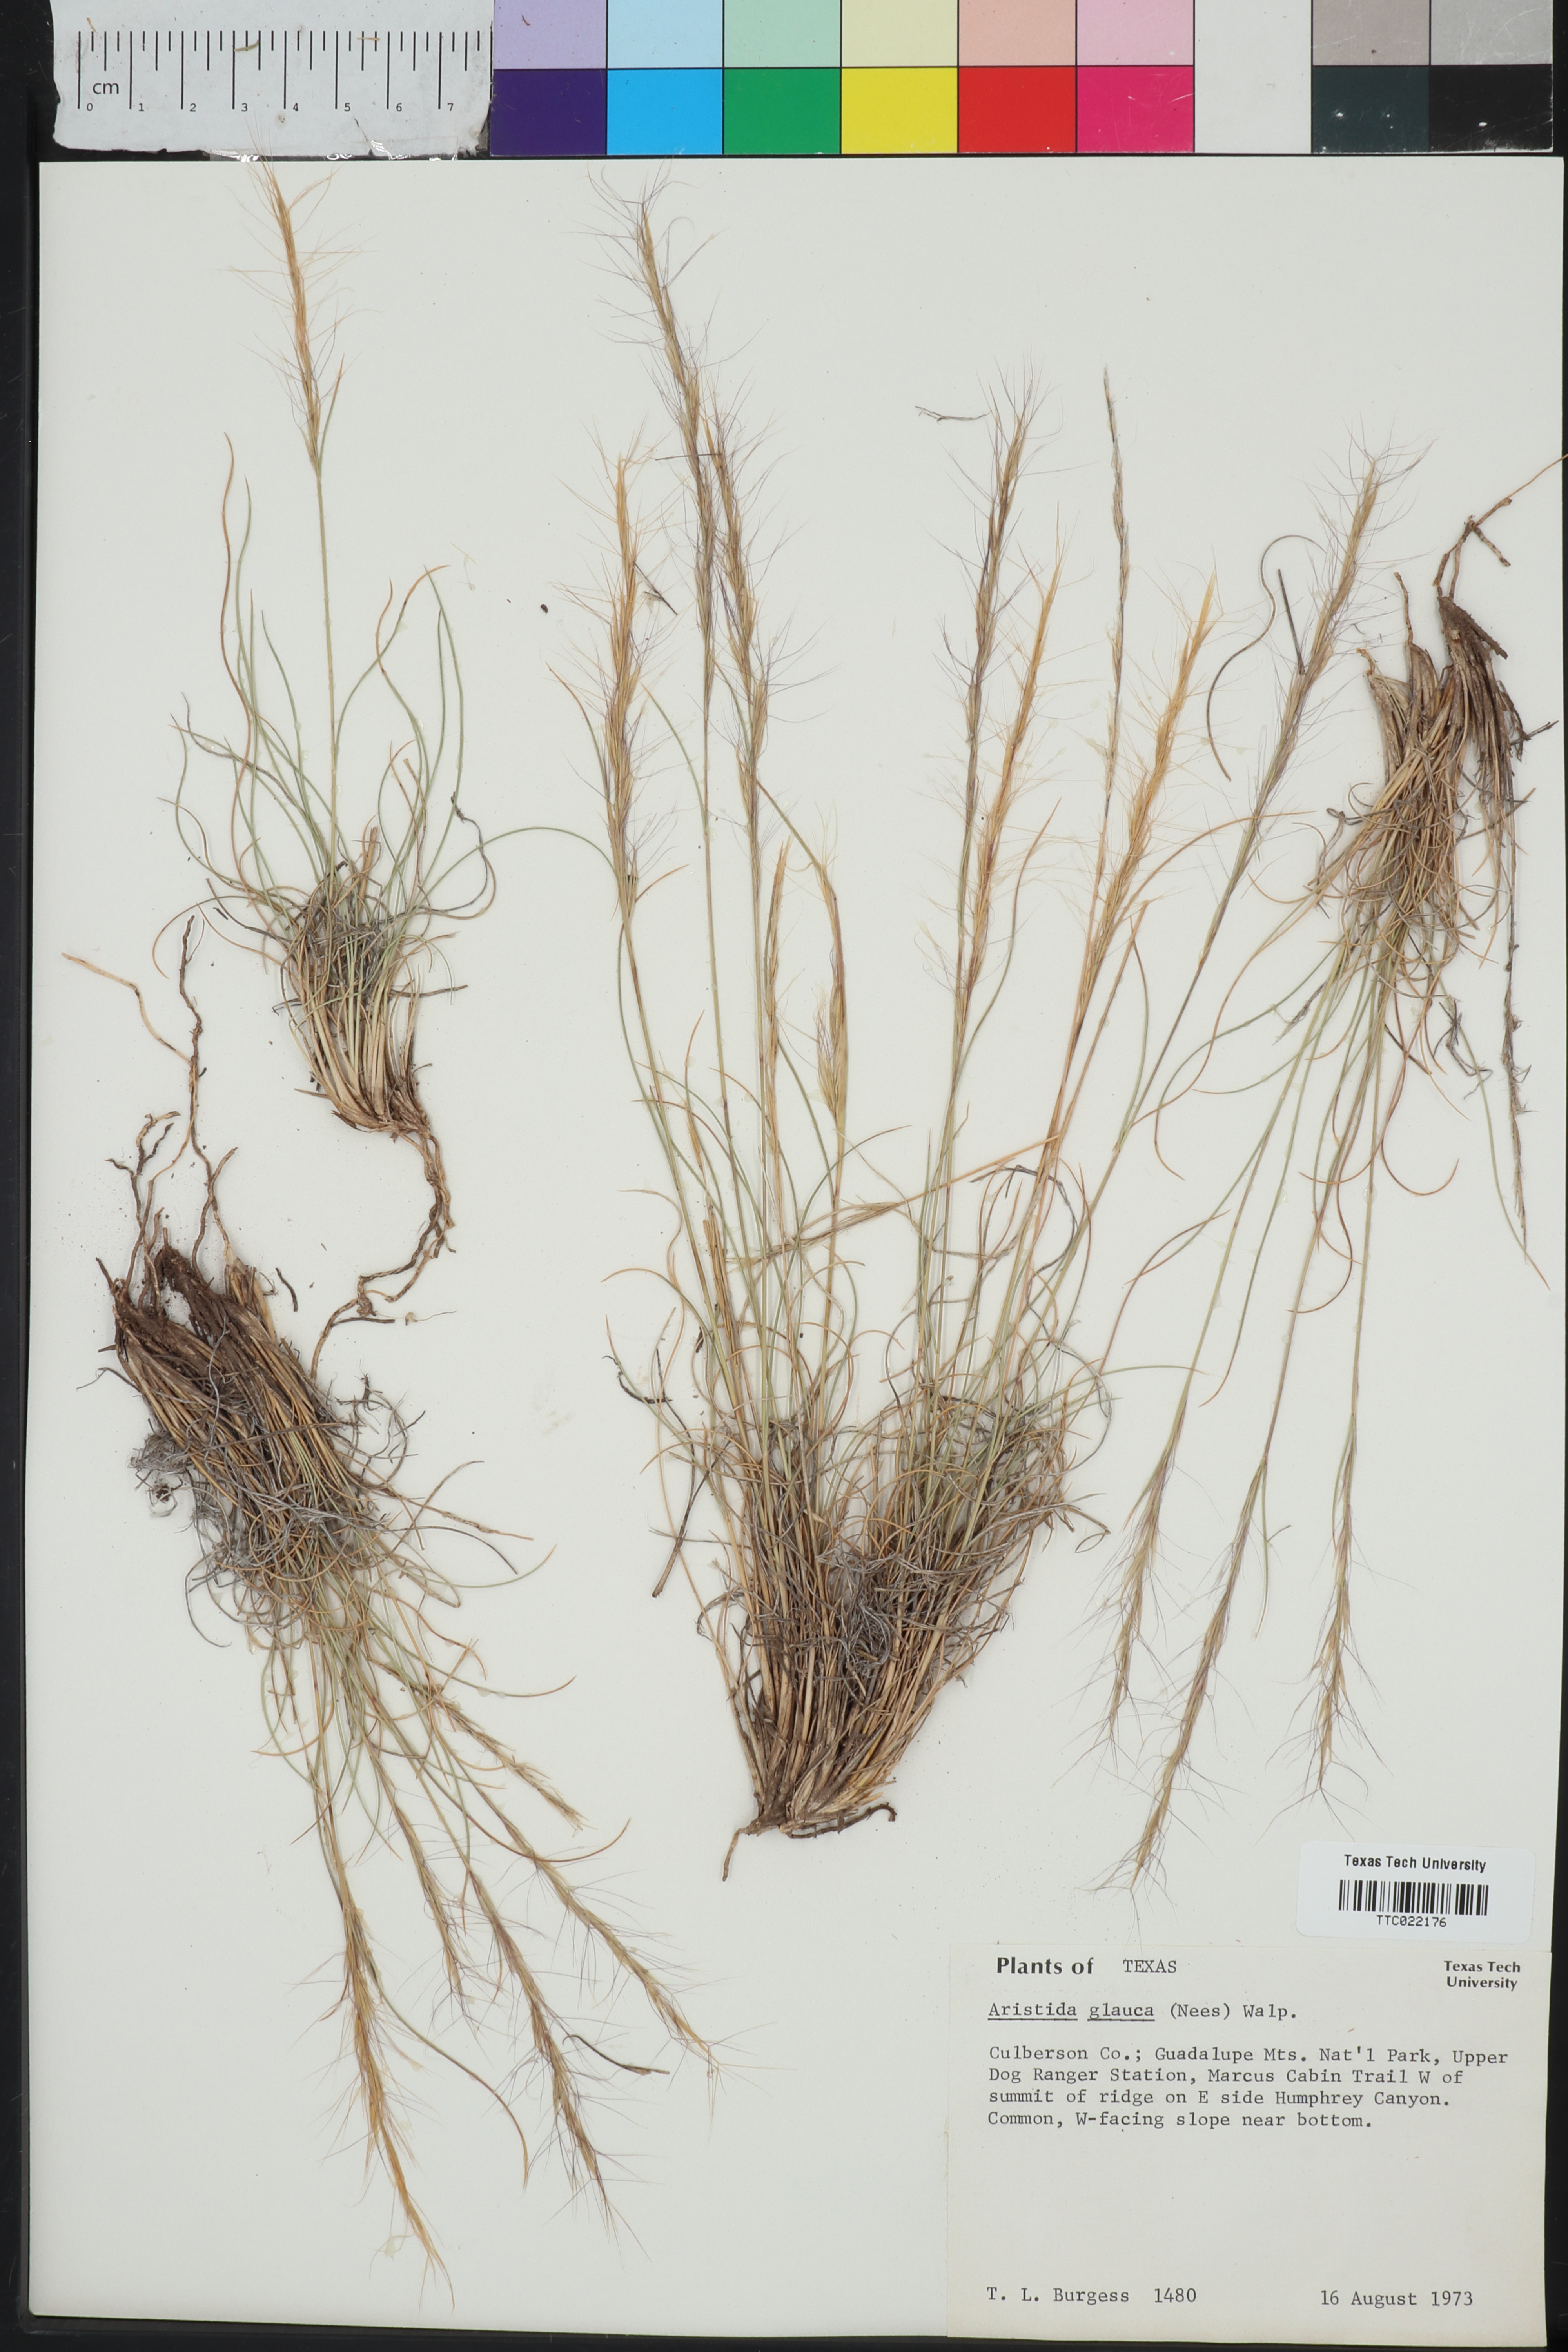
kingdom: Plantae
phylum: Tracheophyta
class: Liliopsida
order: Poales
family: Poaceae
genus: Aristida
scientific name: Aristida glauca
